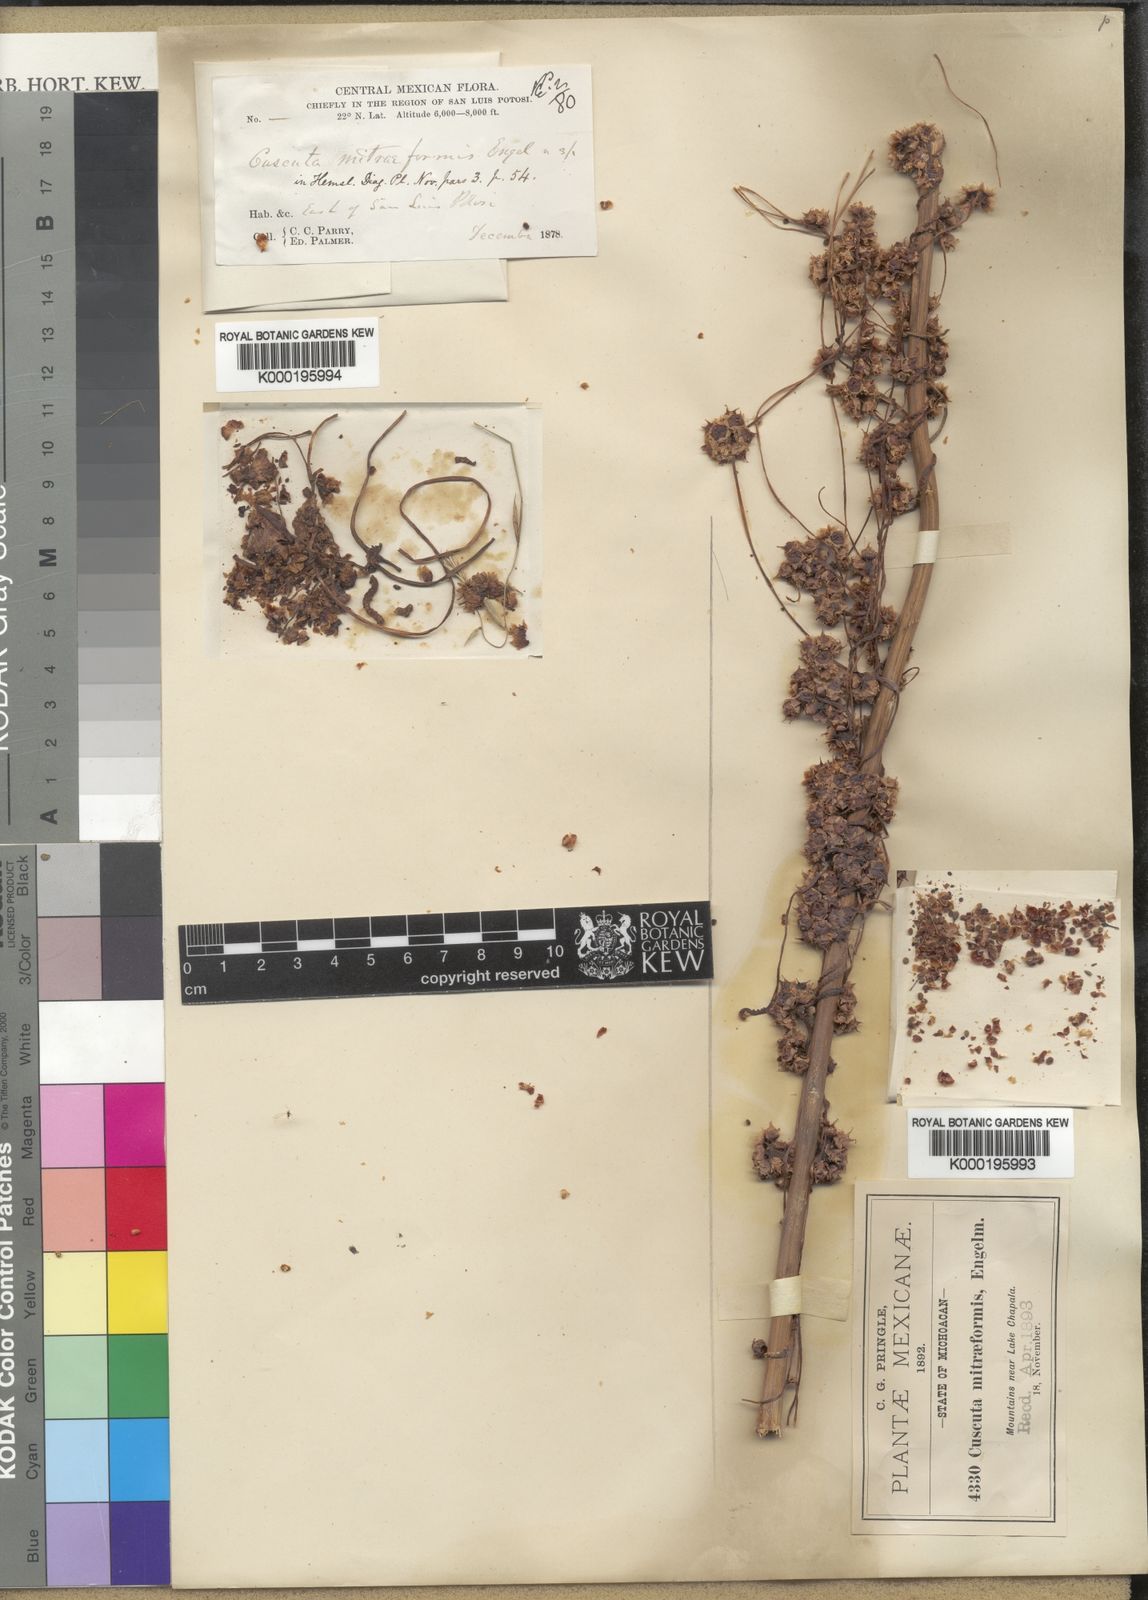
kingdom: Plantae
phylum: Tracheophyta
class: Magnoliopsida
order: Solanales
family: Convolvulaceae
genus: Cuscuta
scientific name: Cuscuta mitriformis
